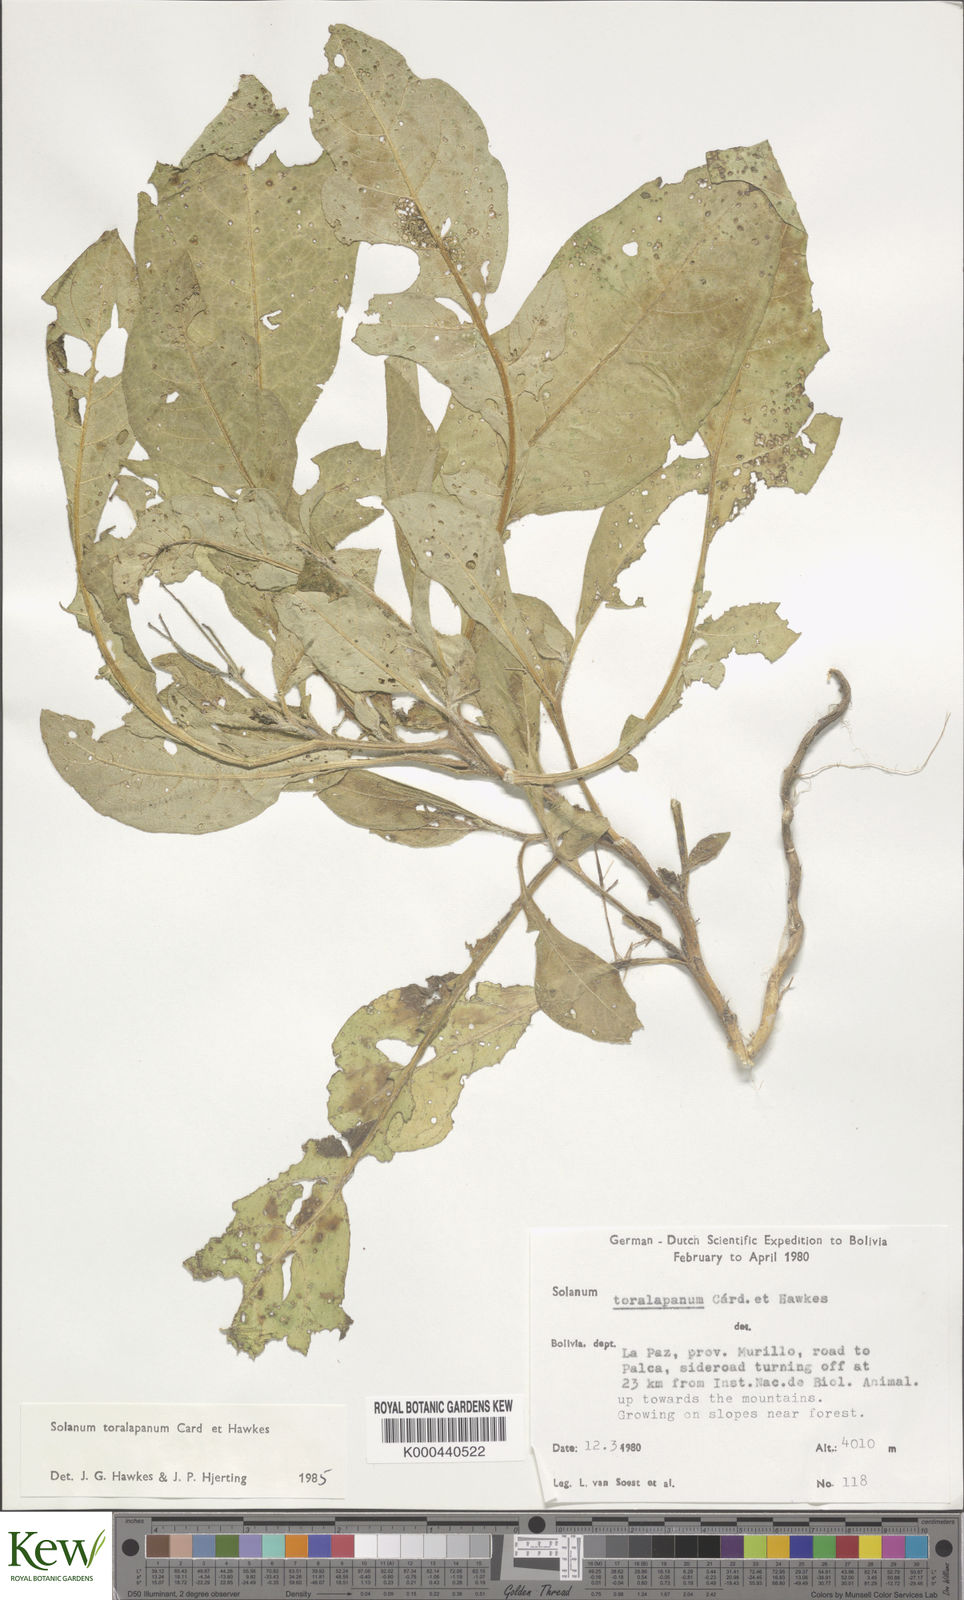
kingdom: Plantae
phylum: Tracheophyta
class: Magnoliopsida
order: Solanales
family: Solanaceae
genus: Solanum
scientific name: Solanum boliviense
